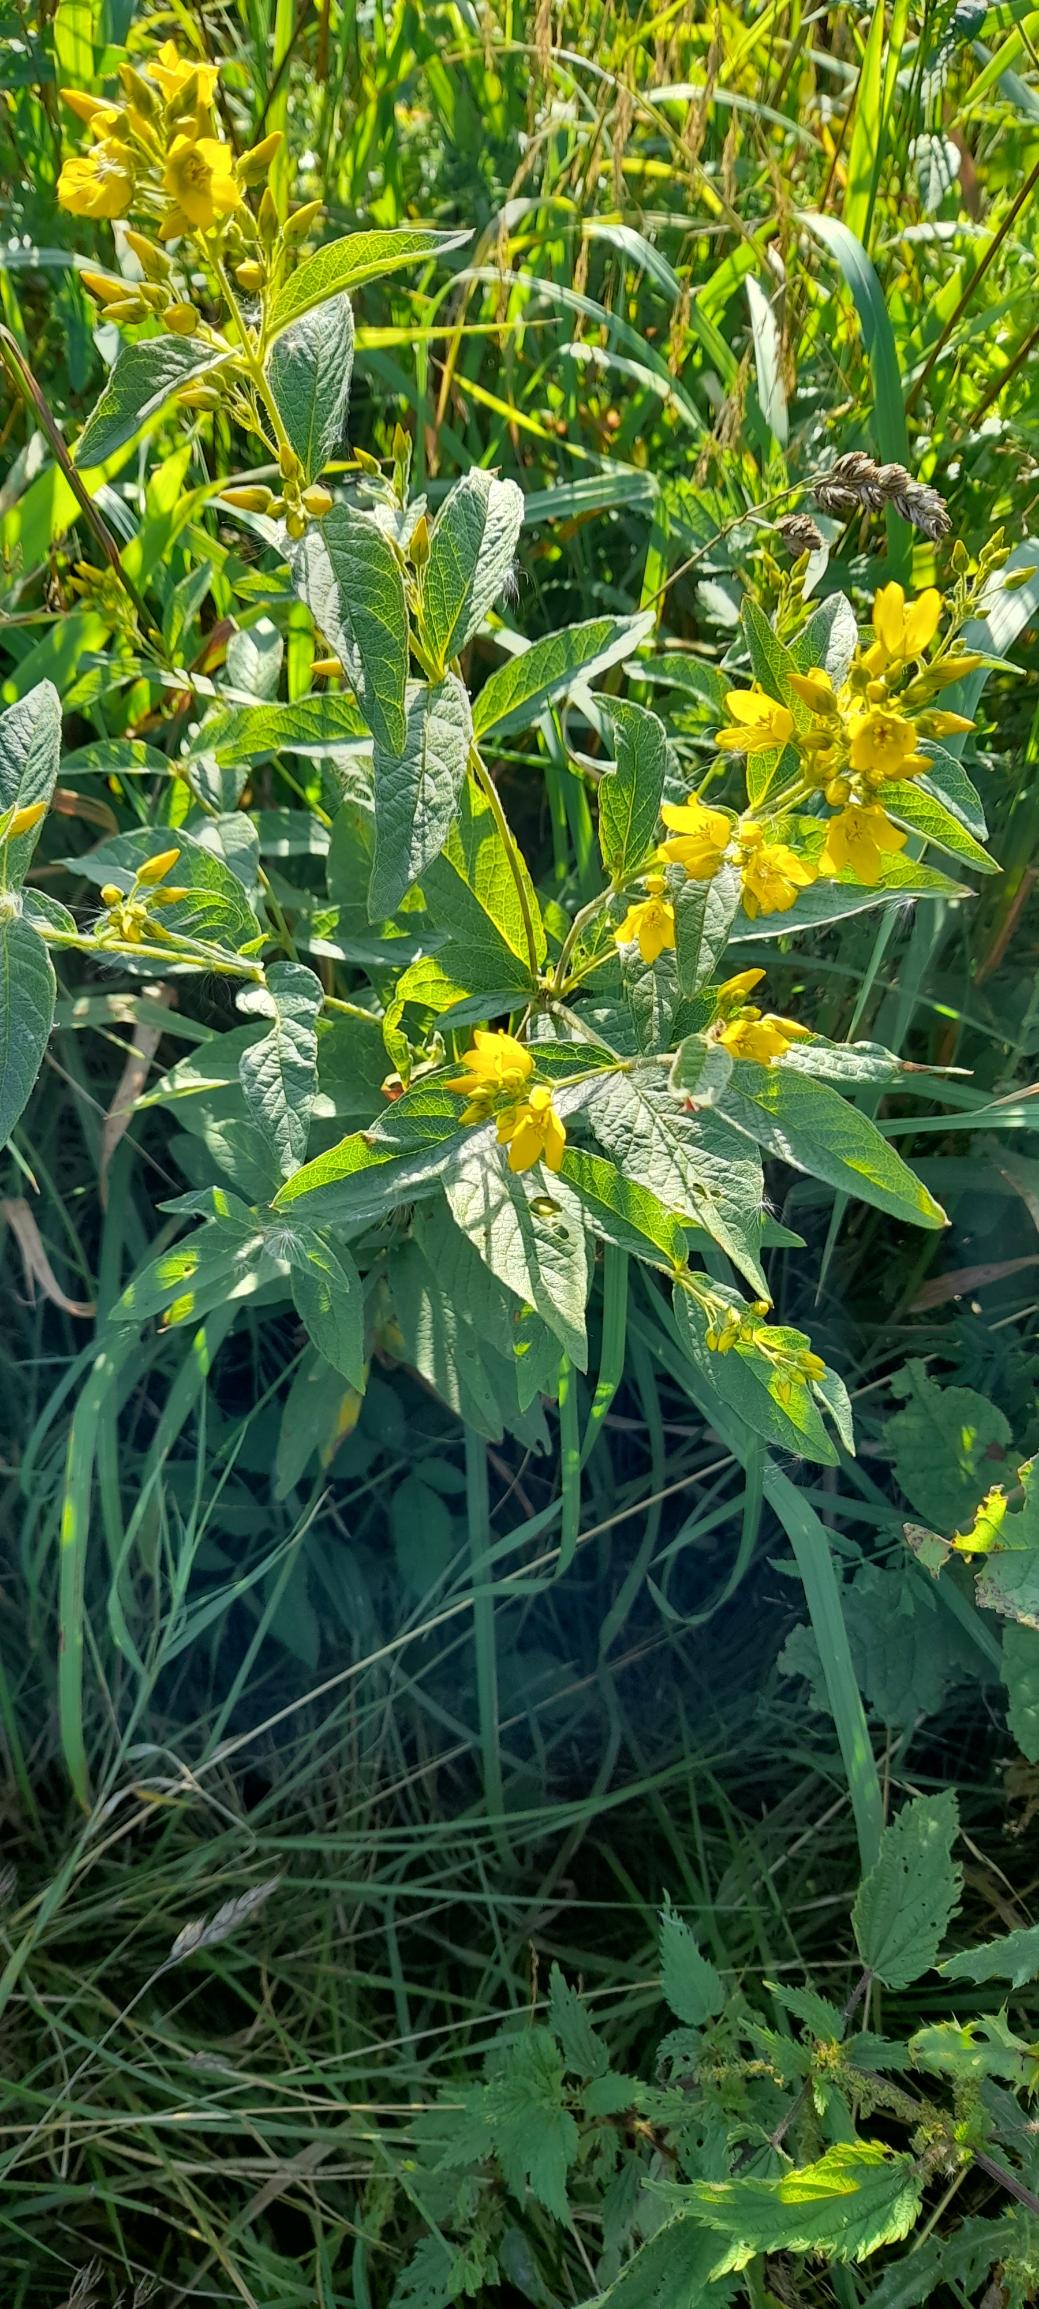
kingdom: Plantae
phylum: Tracheophyta
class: Magnoliopsida
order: Ericales
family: Primulaceae
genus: Lysimachia
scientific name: Lysimachia vulgaris
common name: Almindelig fredløs
